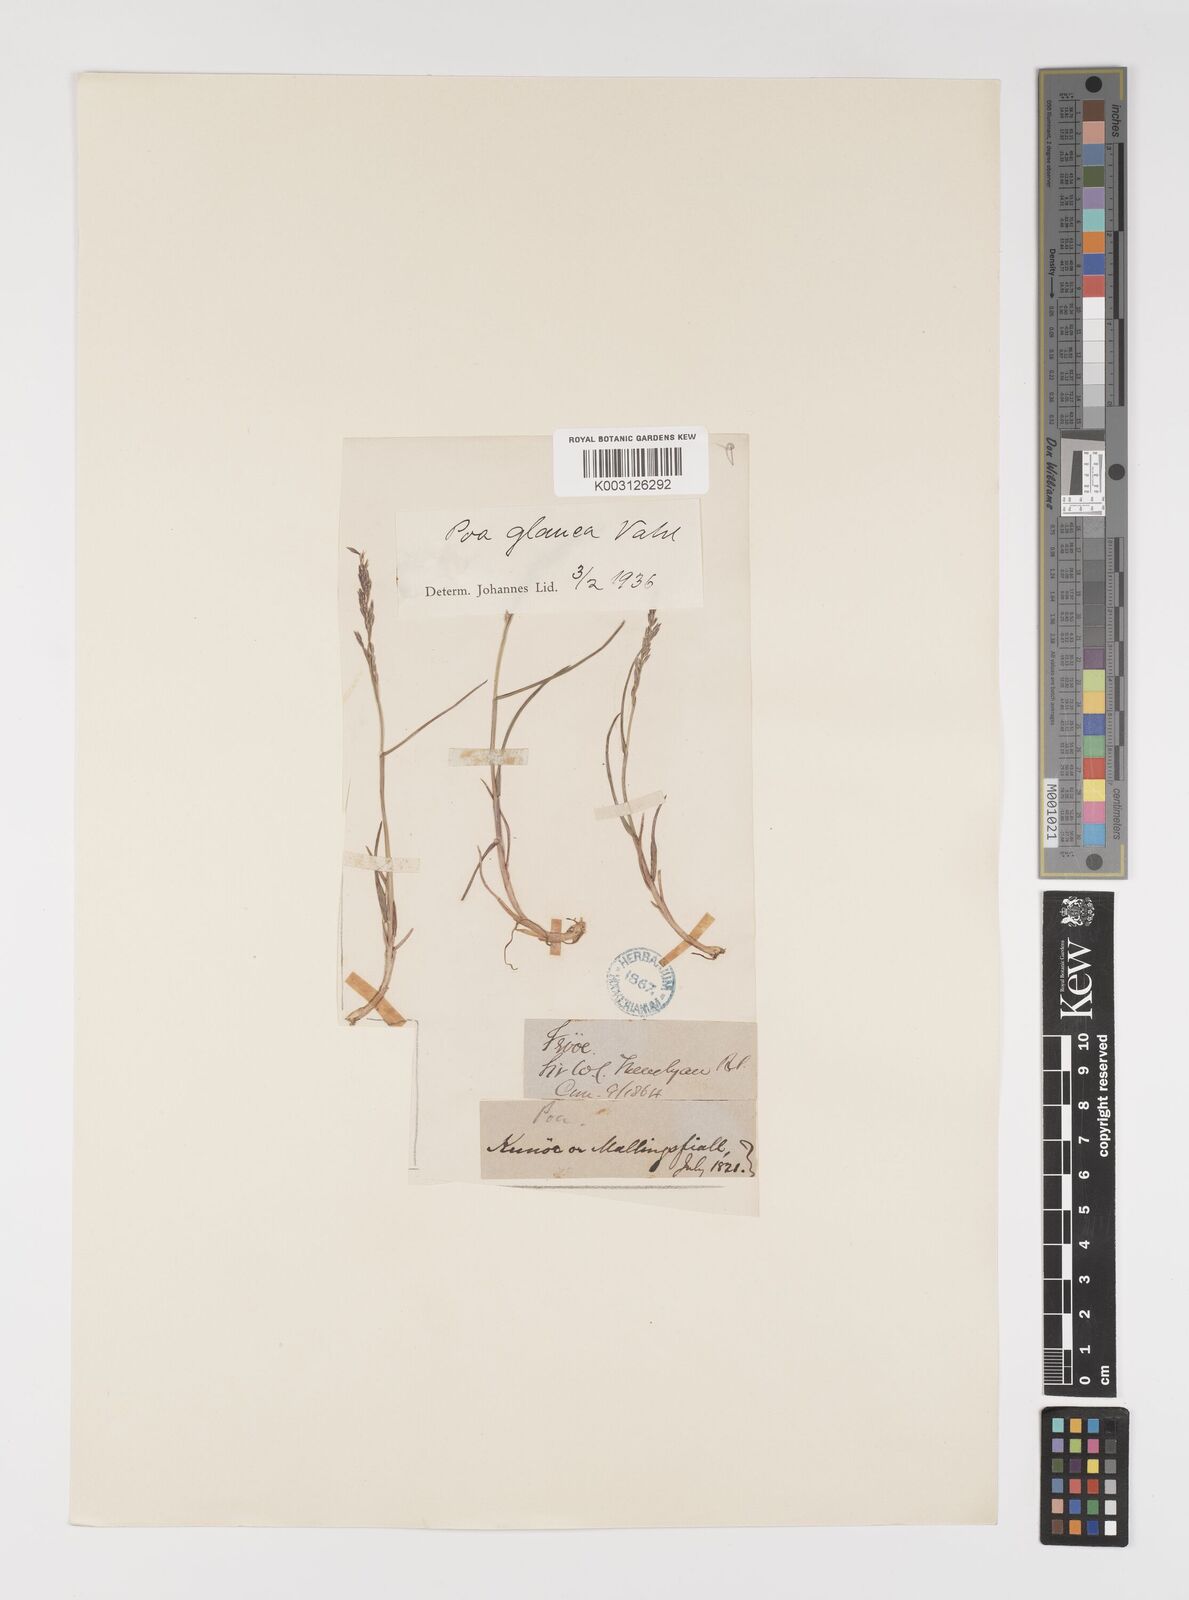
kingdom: Plantae
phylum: Tracheophyta
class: Liliopsida
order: Poales
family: Poaceae
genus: Poa
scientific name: Poa glauca
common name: Glaucous bluegrass
